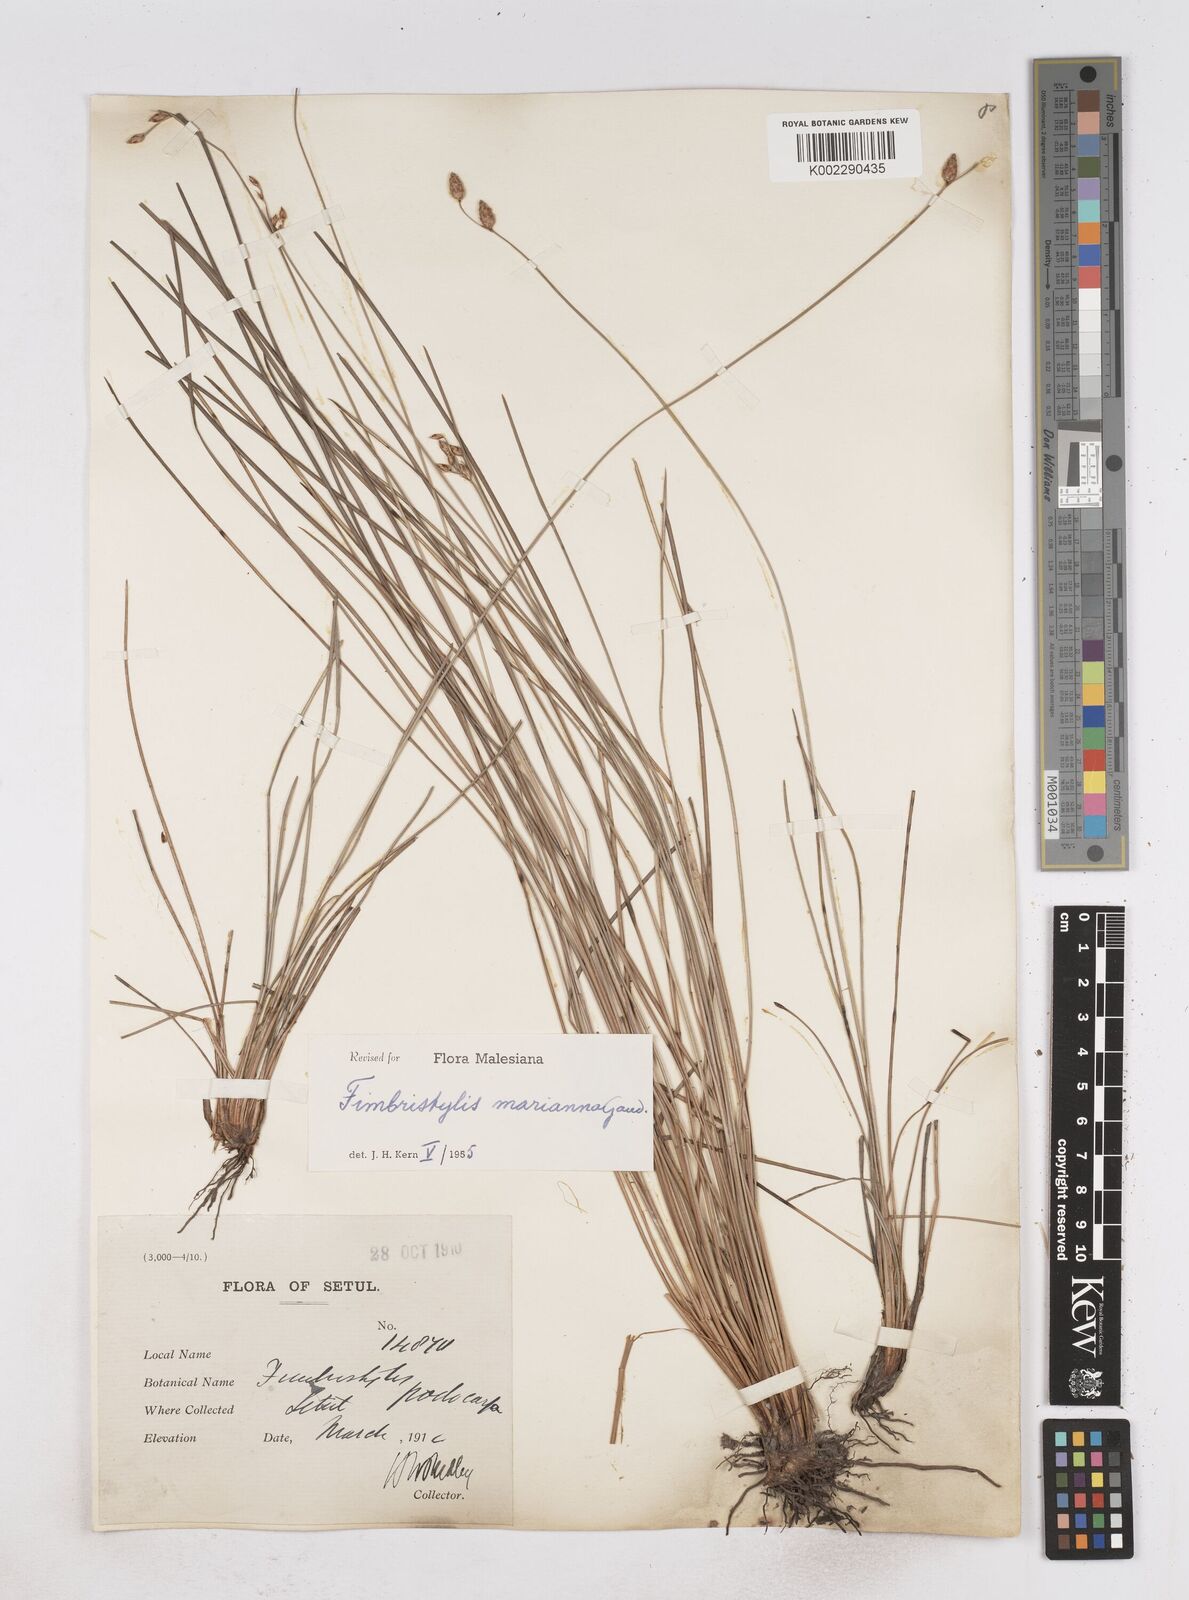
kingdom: Plantae
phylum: Tracheophyta
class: Liliopsida
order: Poales
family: Cyperaceae
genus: Fimbristylis
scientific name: Fimbristylis tristachya
